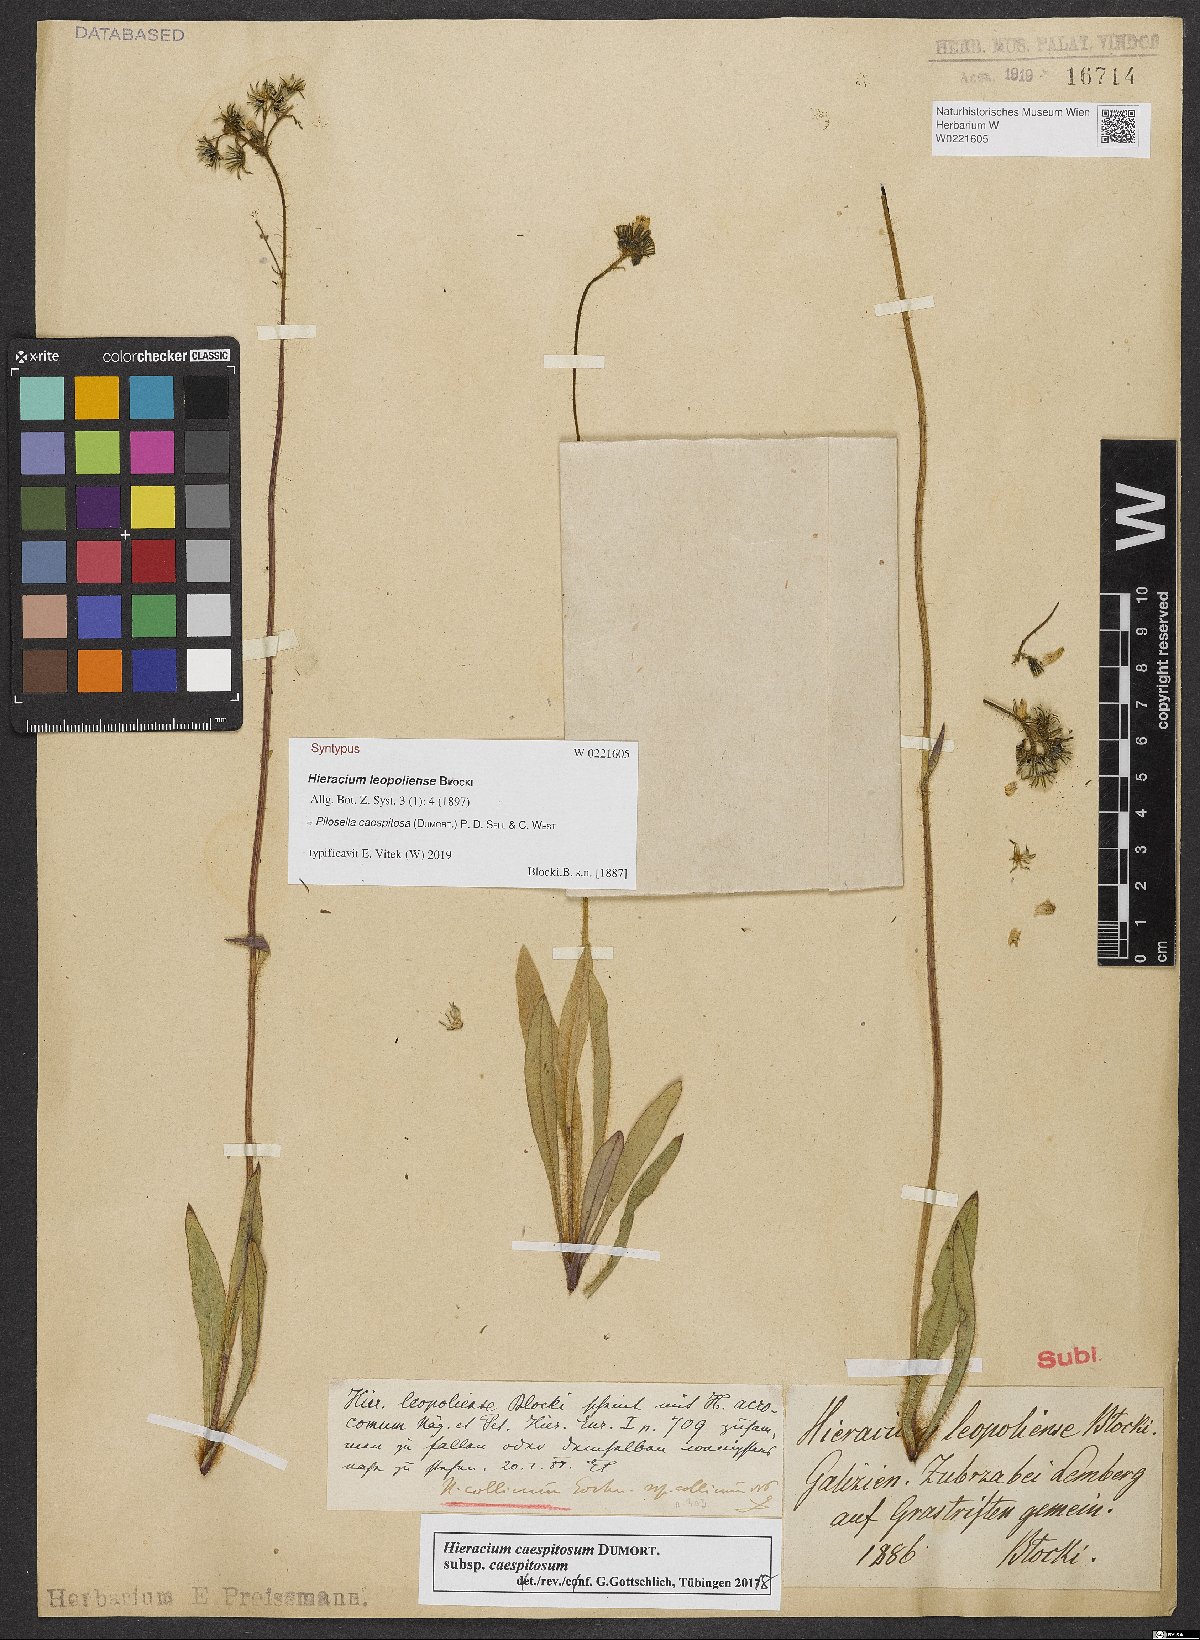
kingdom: Plantae
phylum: Tracheophyta
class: Magnoliopsida
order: Asterales
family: Asteraceae
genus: Pilosella
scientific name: Pilosella polymastix
